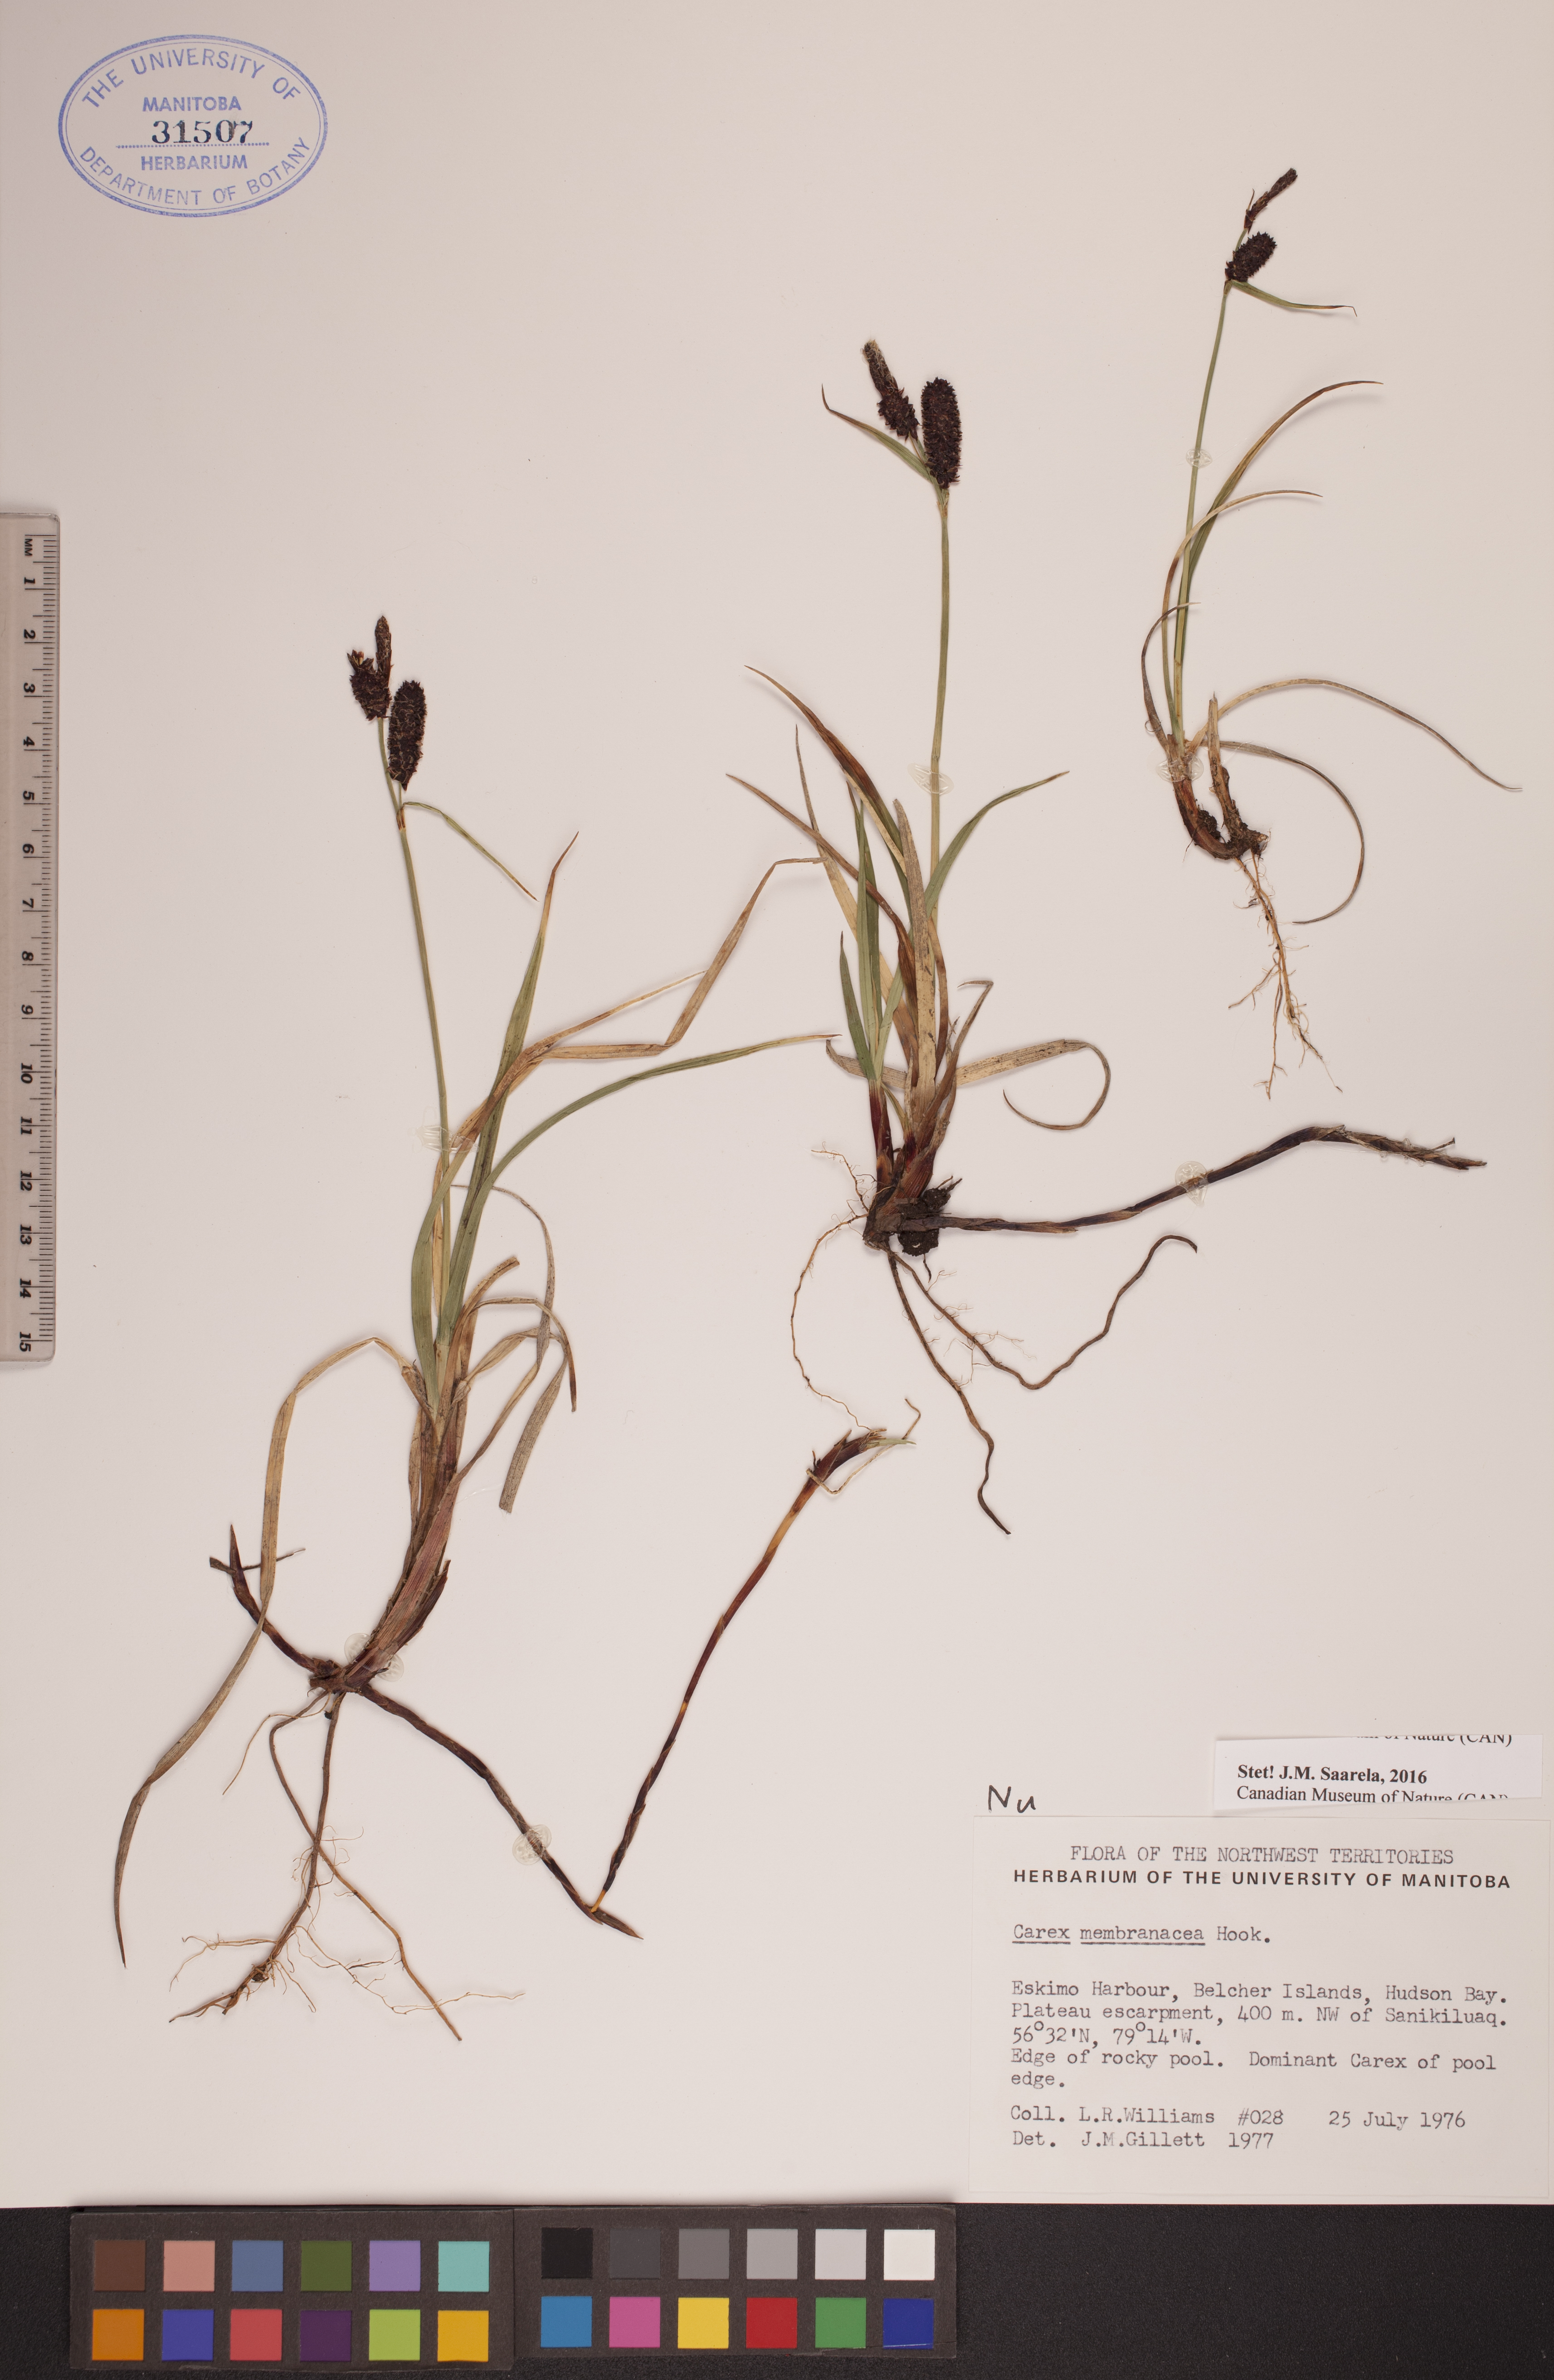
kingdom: Plantae
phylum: Tracheophyta
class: Liliopsida
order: Poales
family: Cyperaceae
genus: Carex
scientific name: Carex membranacea
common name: Fragile sedge
